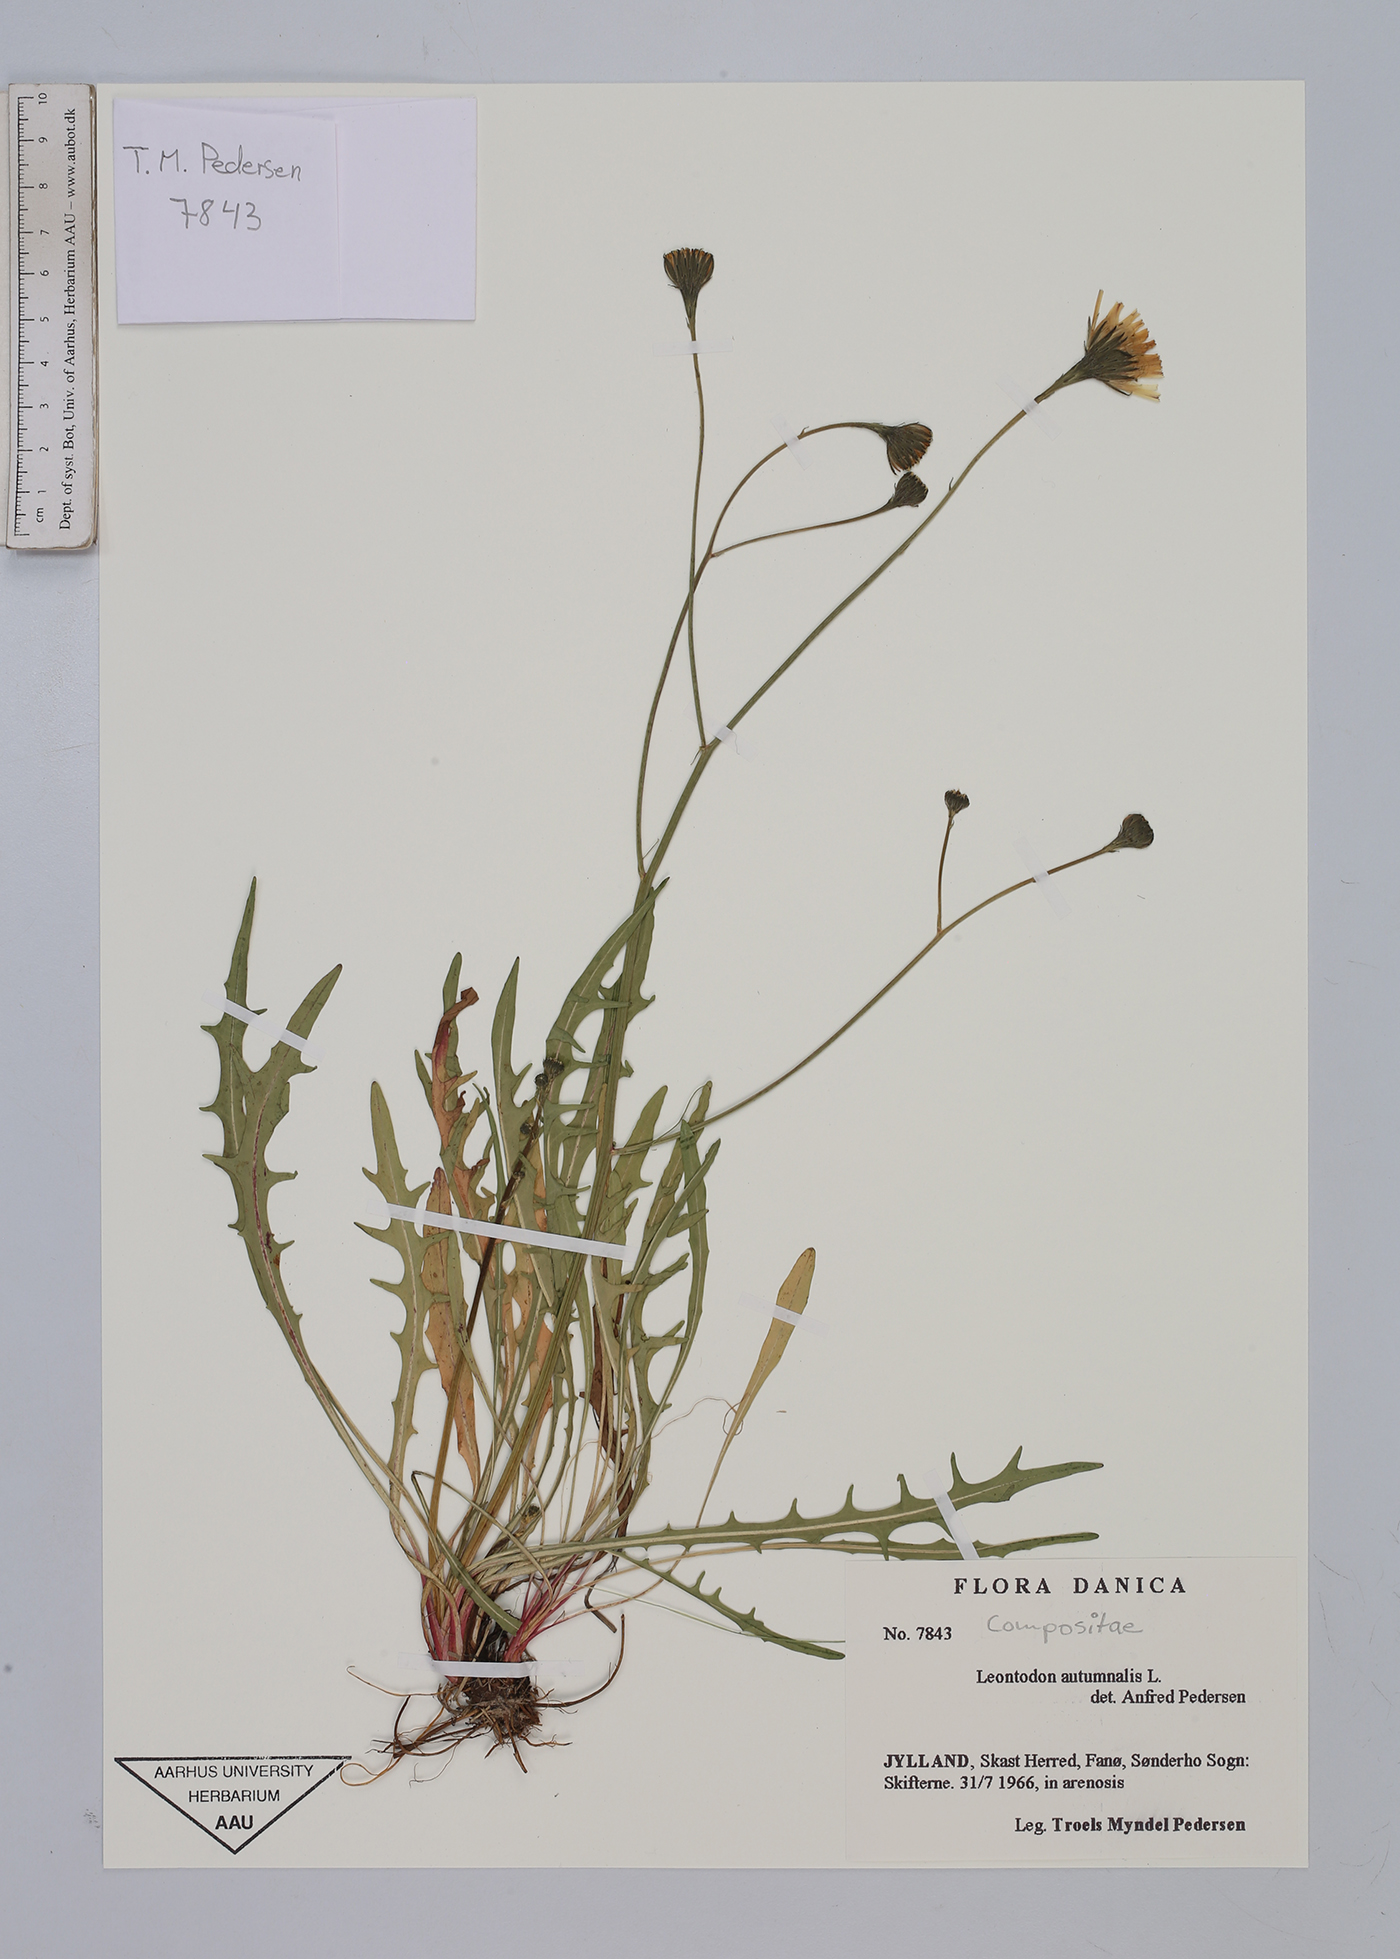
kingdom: Plantae
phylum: Tracheophyta
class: Magnoliopsida
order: Asterales
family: Asteraceae
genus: Scorzoneroides
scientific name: Scorzoneroides autumnalis
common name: Autumn hawkbit
